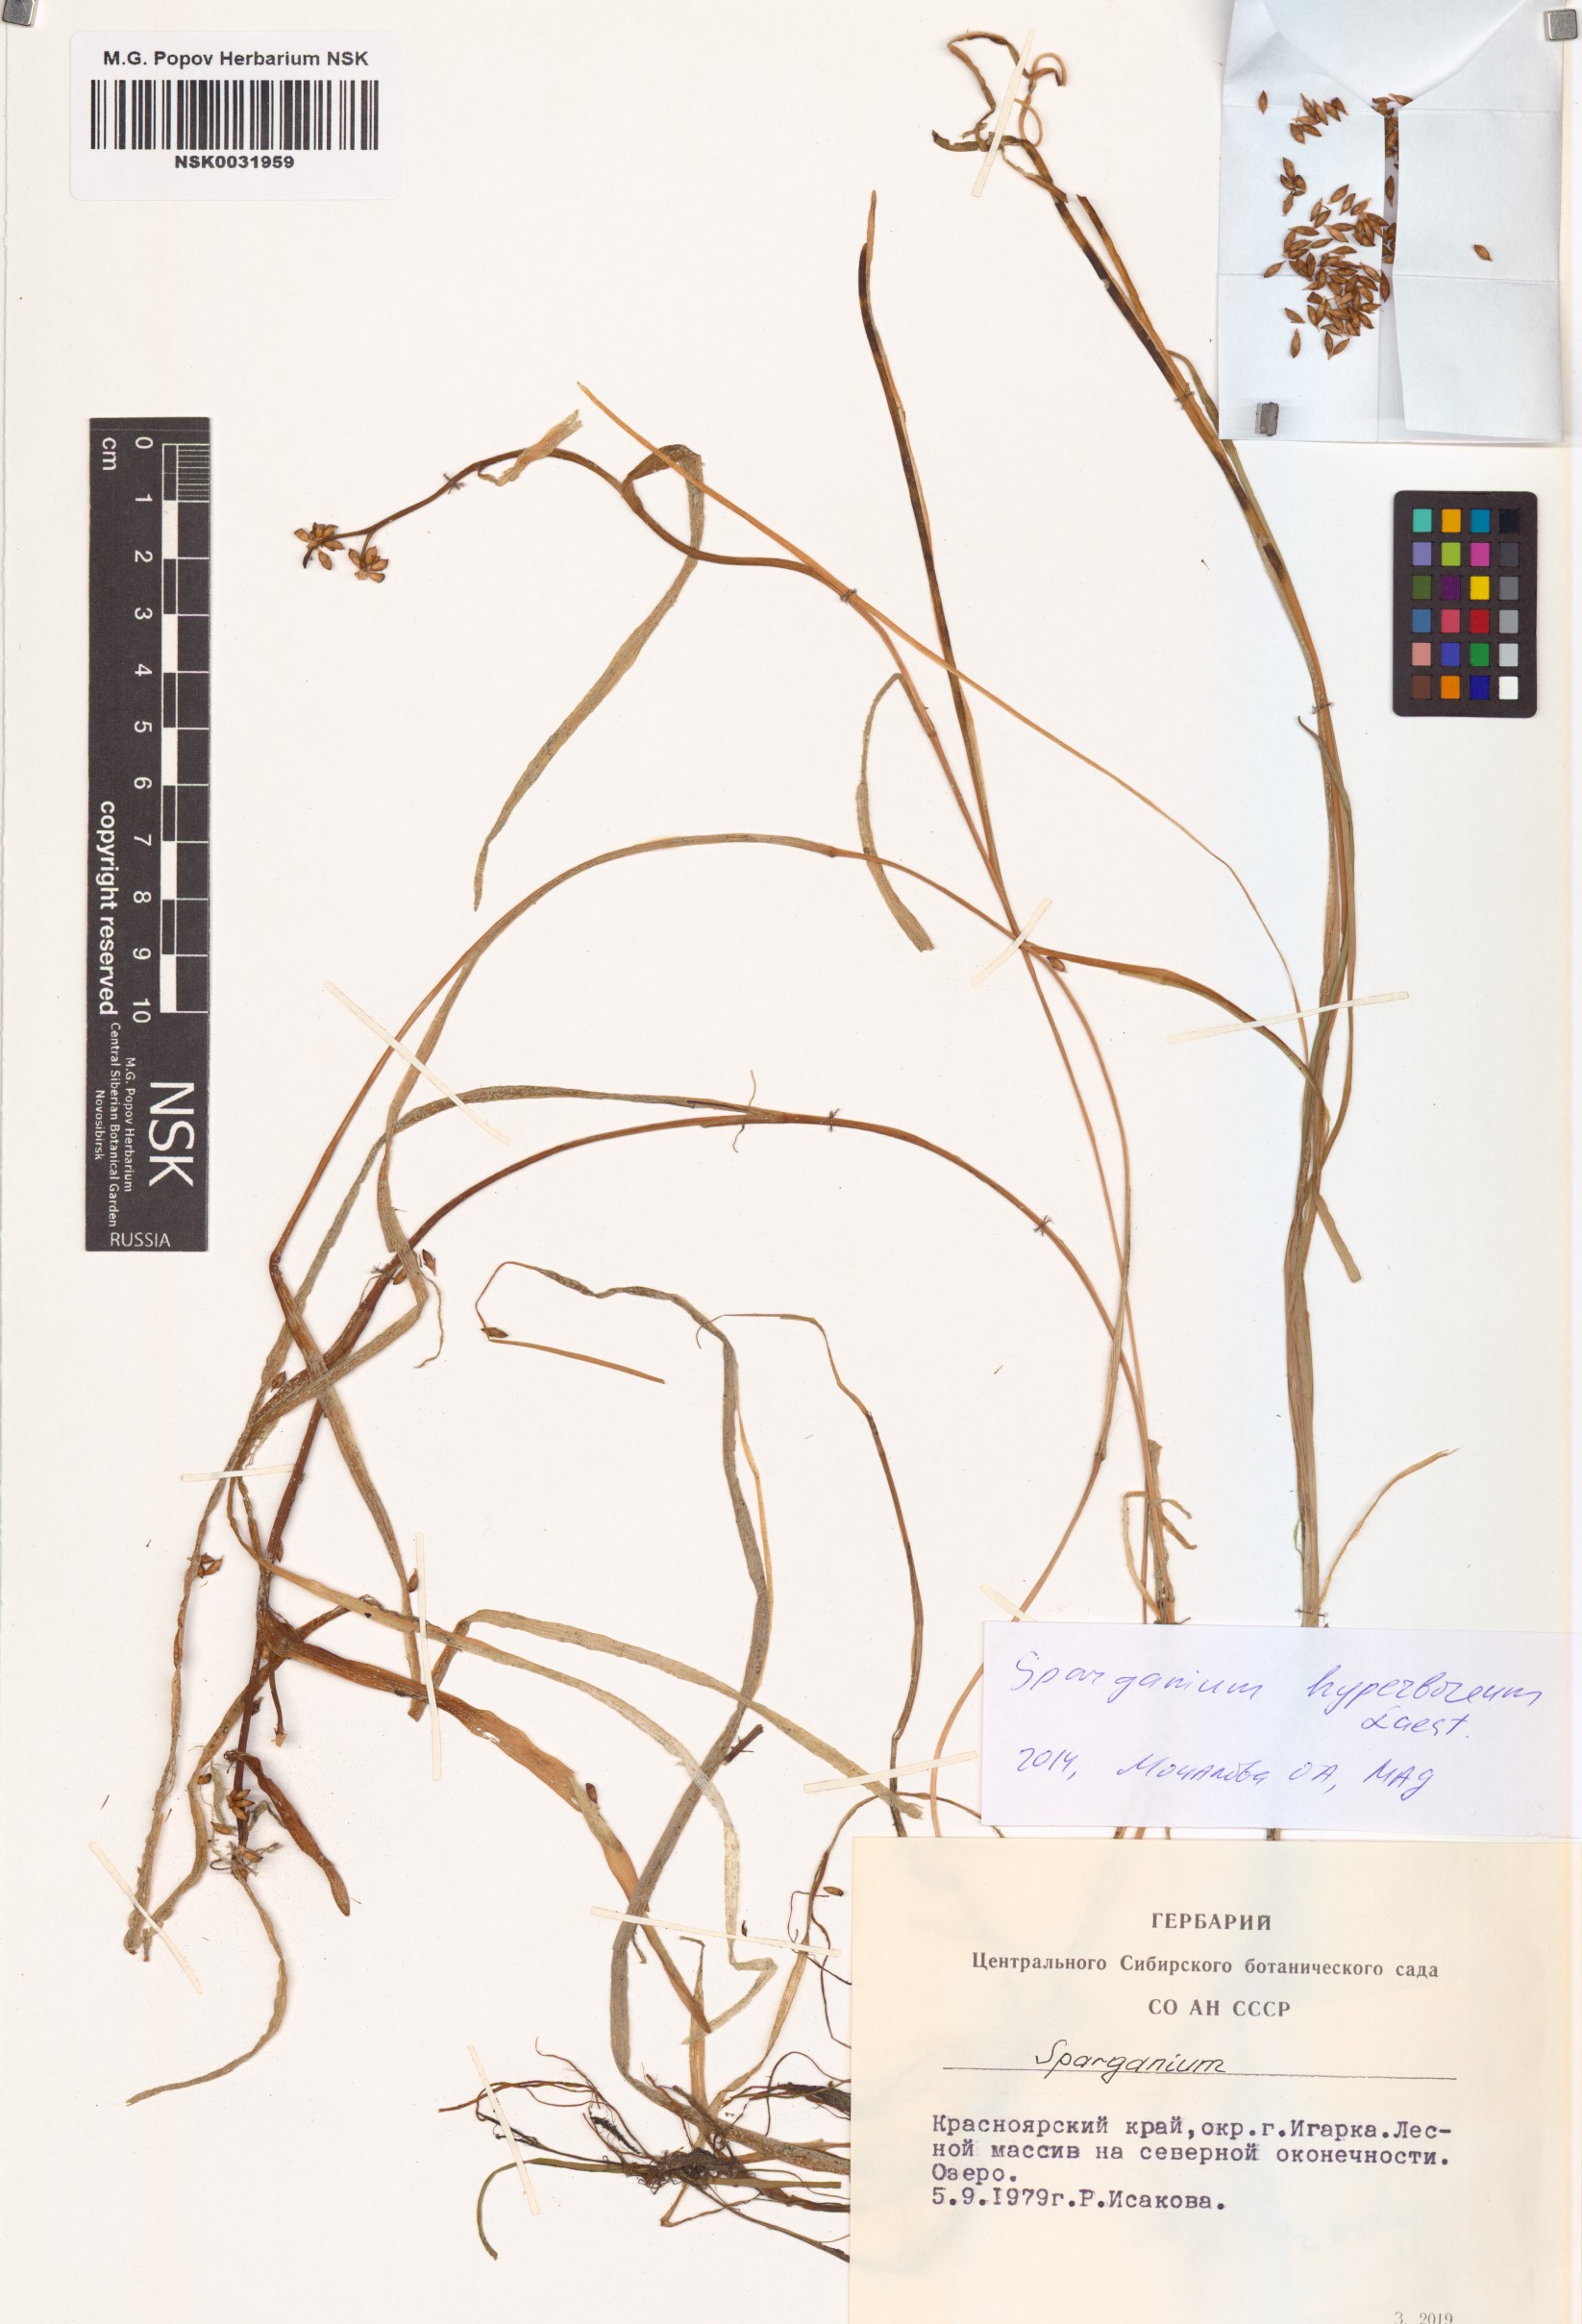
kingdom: Plantae
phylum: Tracheophyta
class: Liliopsida
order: Poales
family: Typhaceae
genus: Sparganium
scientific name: Sparganium hyperboreum
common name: Arctic burreed
